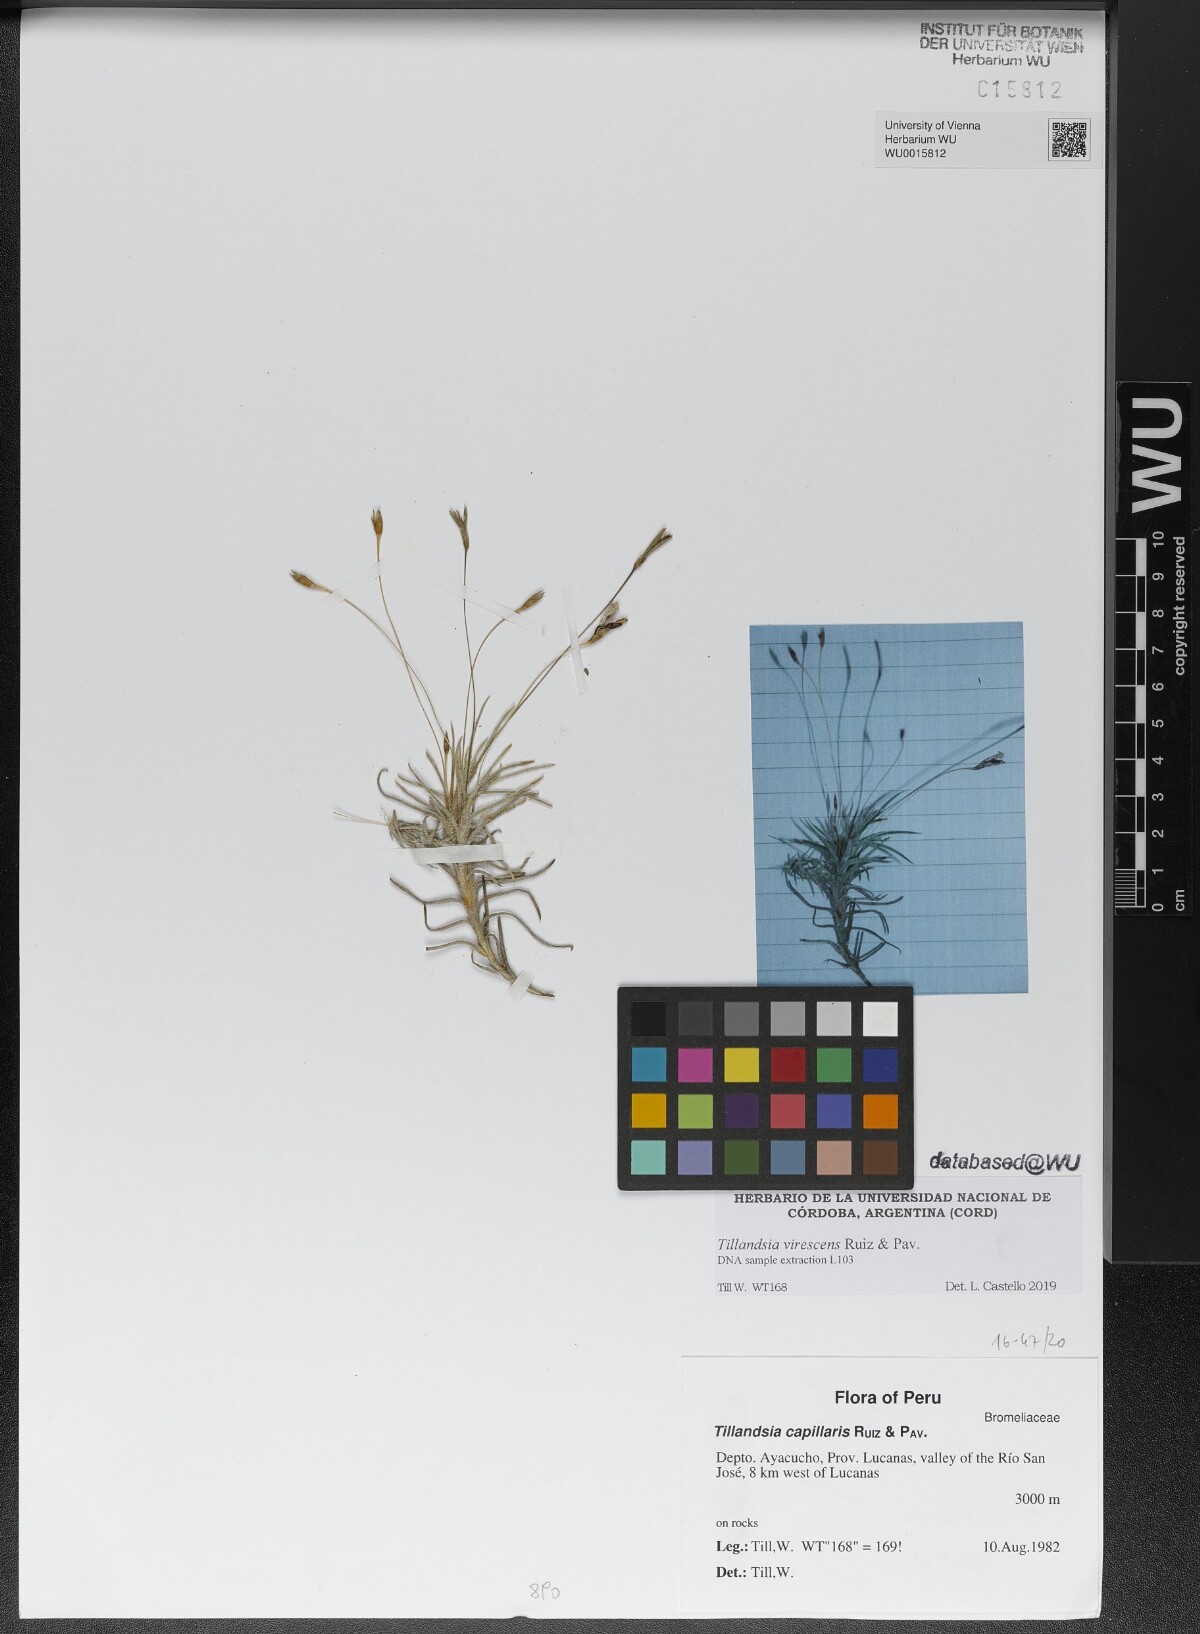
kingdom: Plantae
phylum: Tracheophyta
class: Liliopsida
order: Poales
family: Bromeliaceae
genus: Tillandsia
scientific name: Tillandsia virescens
